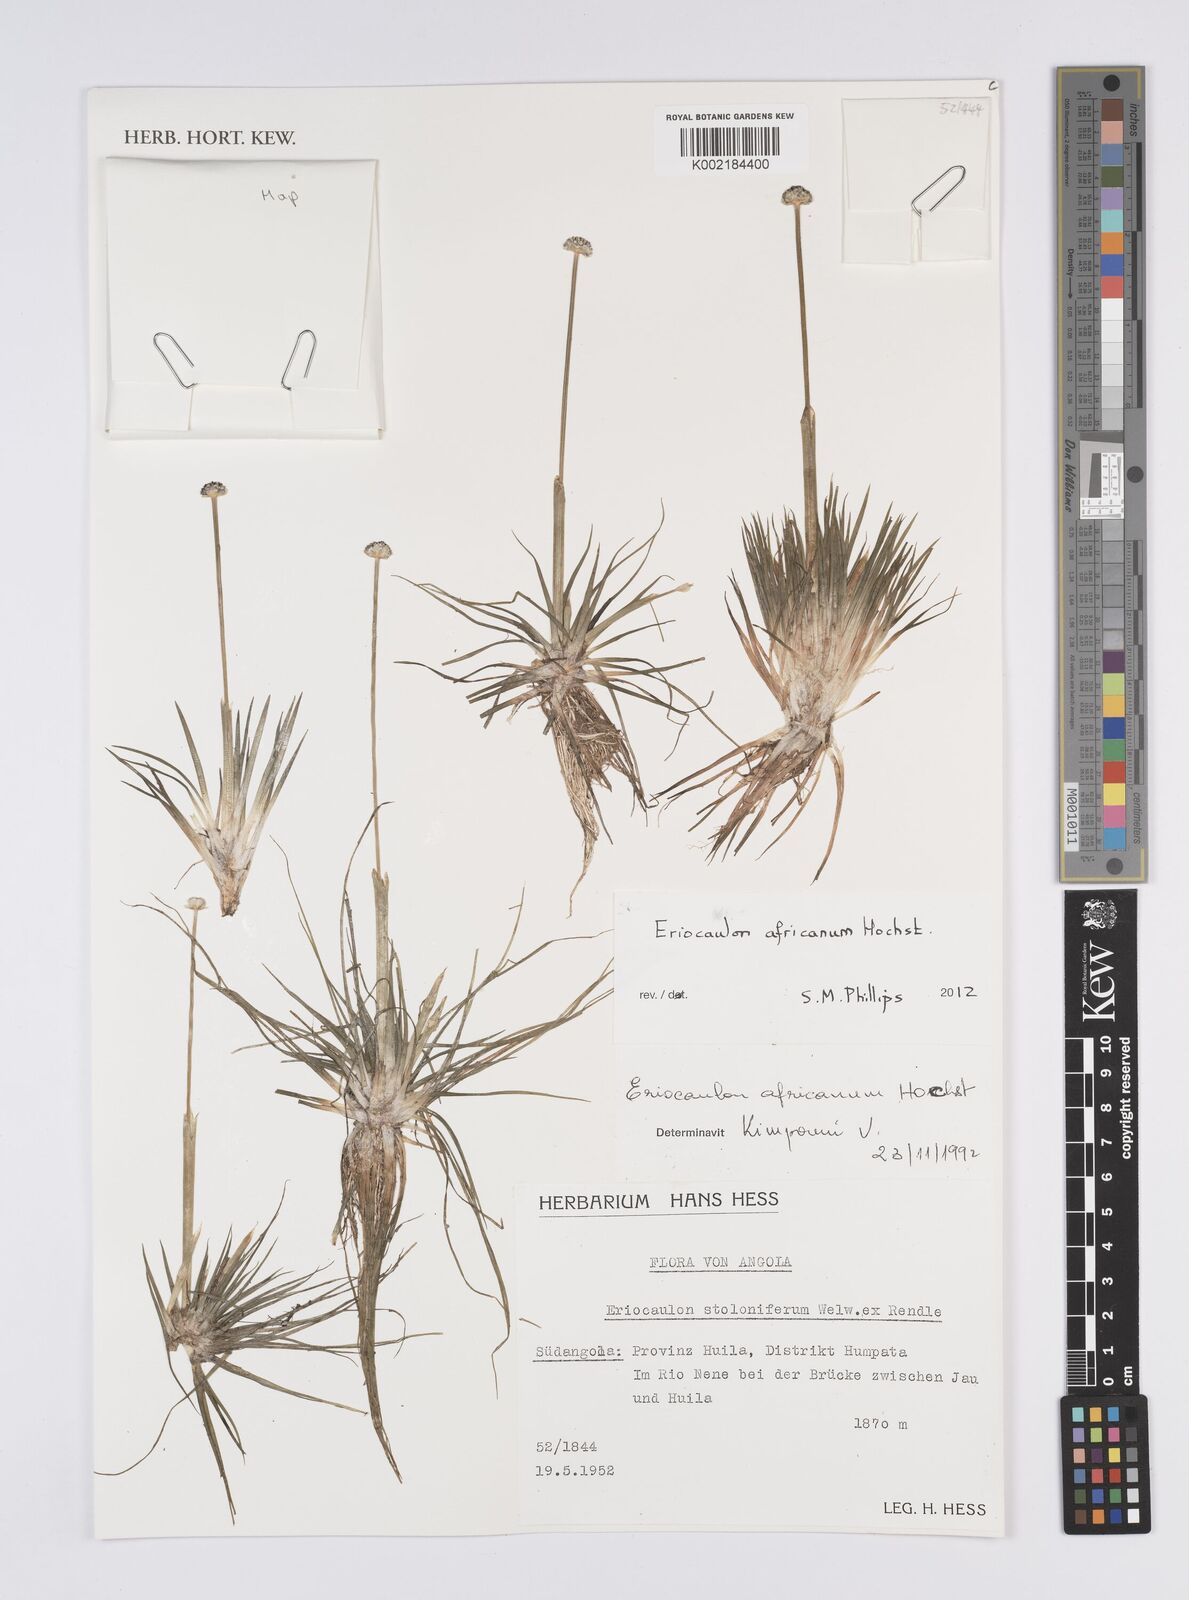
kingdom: Plantae
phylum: Tracheophyta
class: Liliopsida
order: Poales
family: Eriocaulaceae
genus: Eriocaulon
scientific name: Eriocaulon africanum
